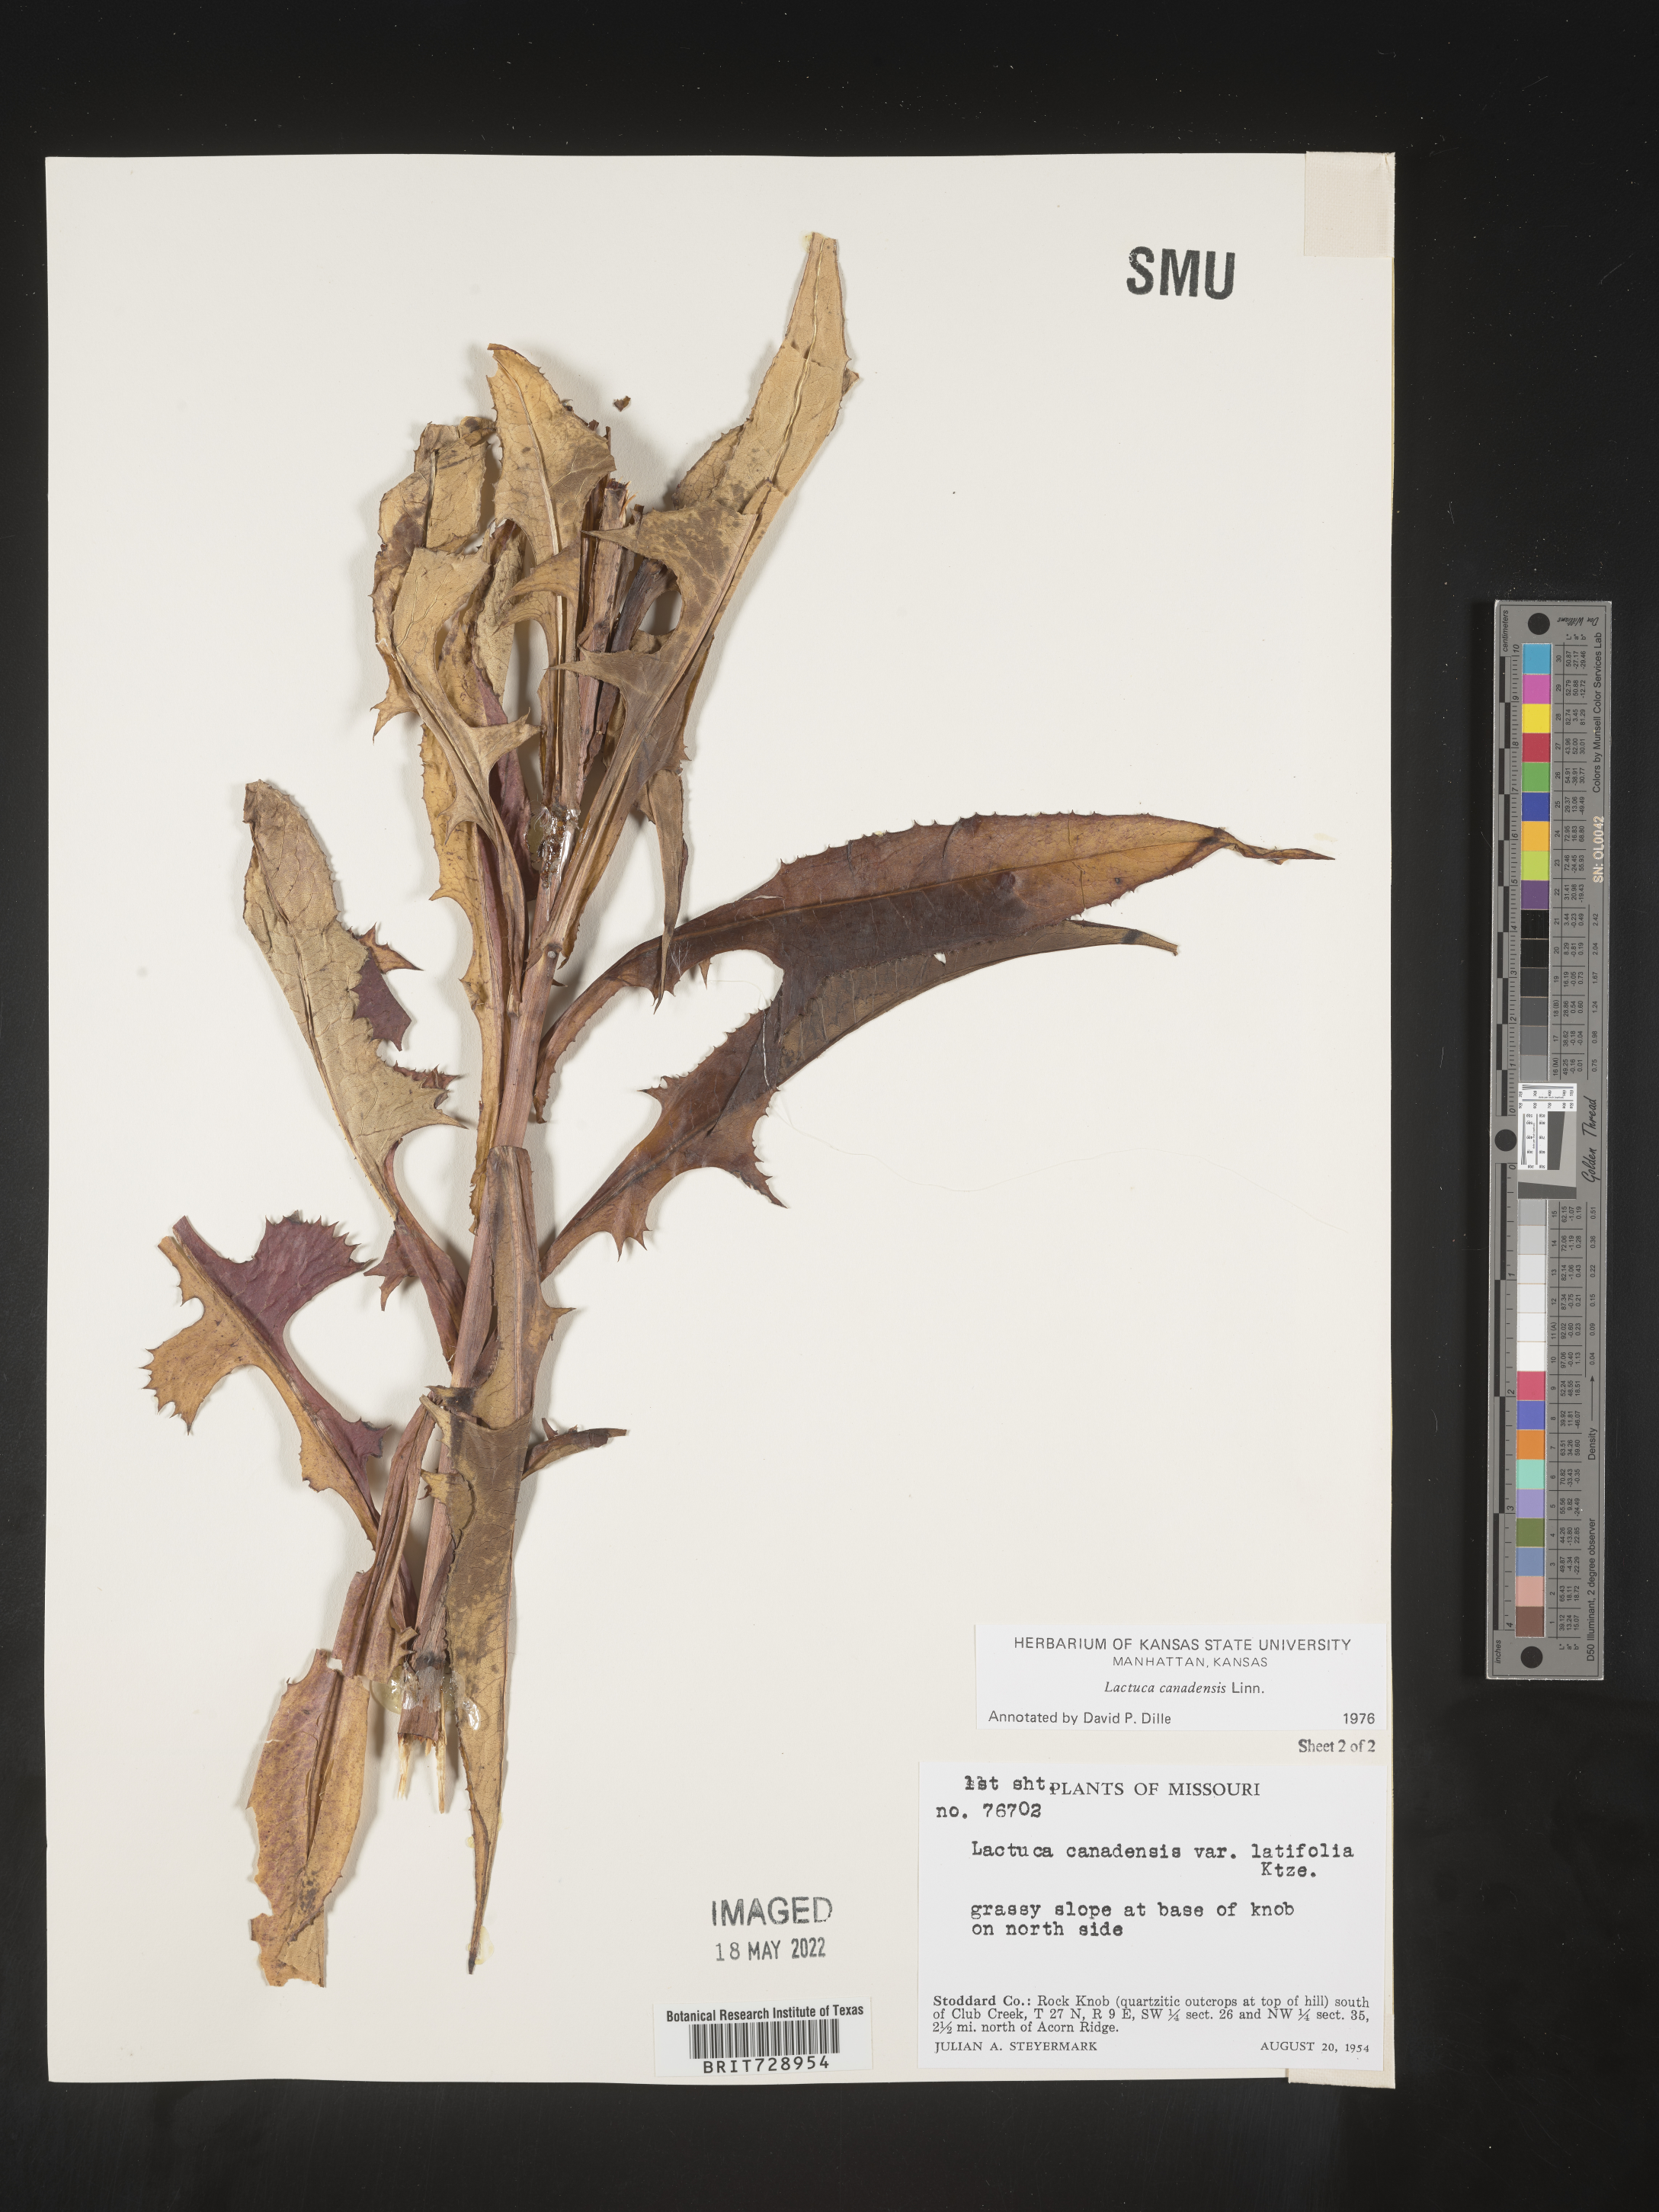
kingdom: Plantae
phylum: Tracheophyta
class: Magnoliopsida
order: Asterales
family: Asteraceae
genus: Lactuca
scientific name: Lactuca canadensis
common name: Canada lettuce
